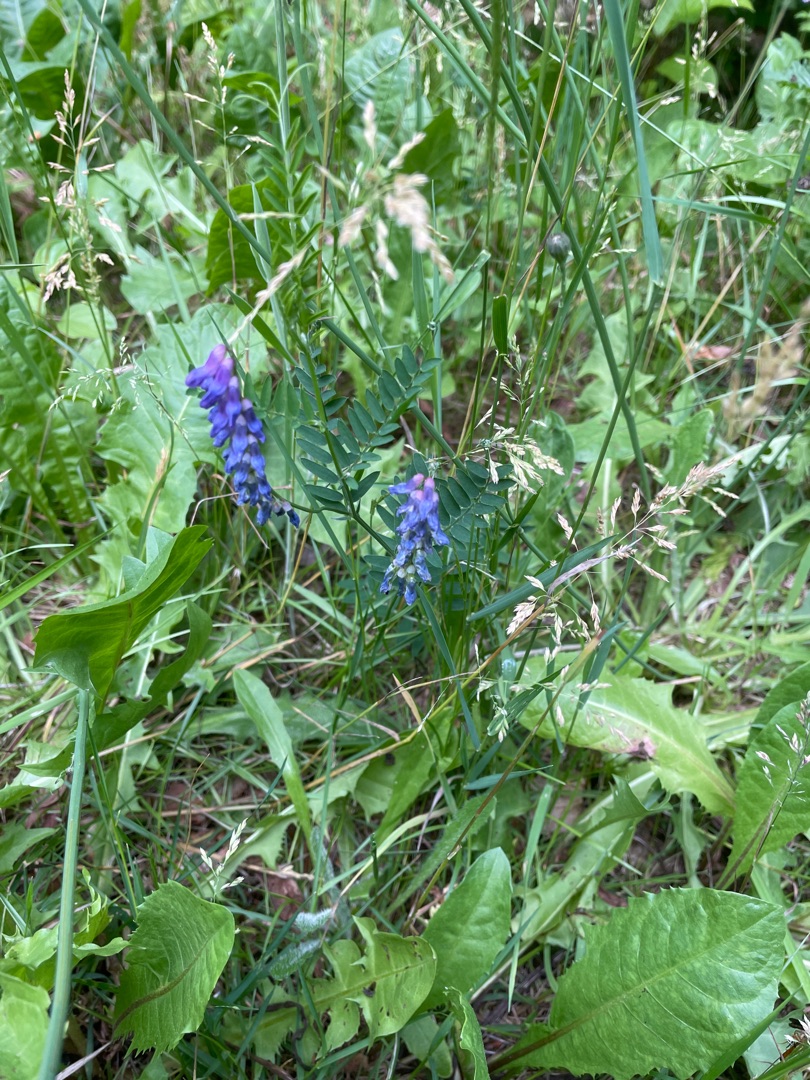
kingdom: Plantae
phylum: Tracheophyta
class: Magnoliopsida
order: Fabales
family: Fabaceae
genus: Vicia
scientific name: Vicia cracca
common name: Muse-vikke
